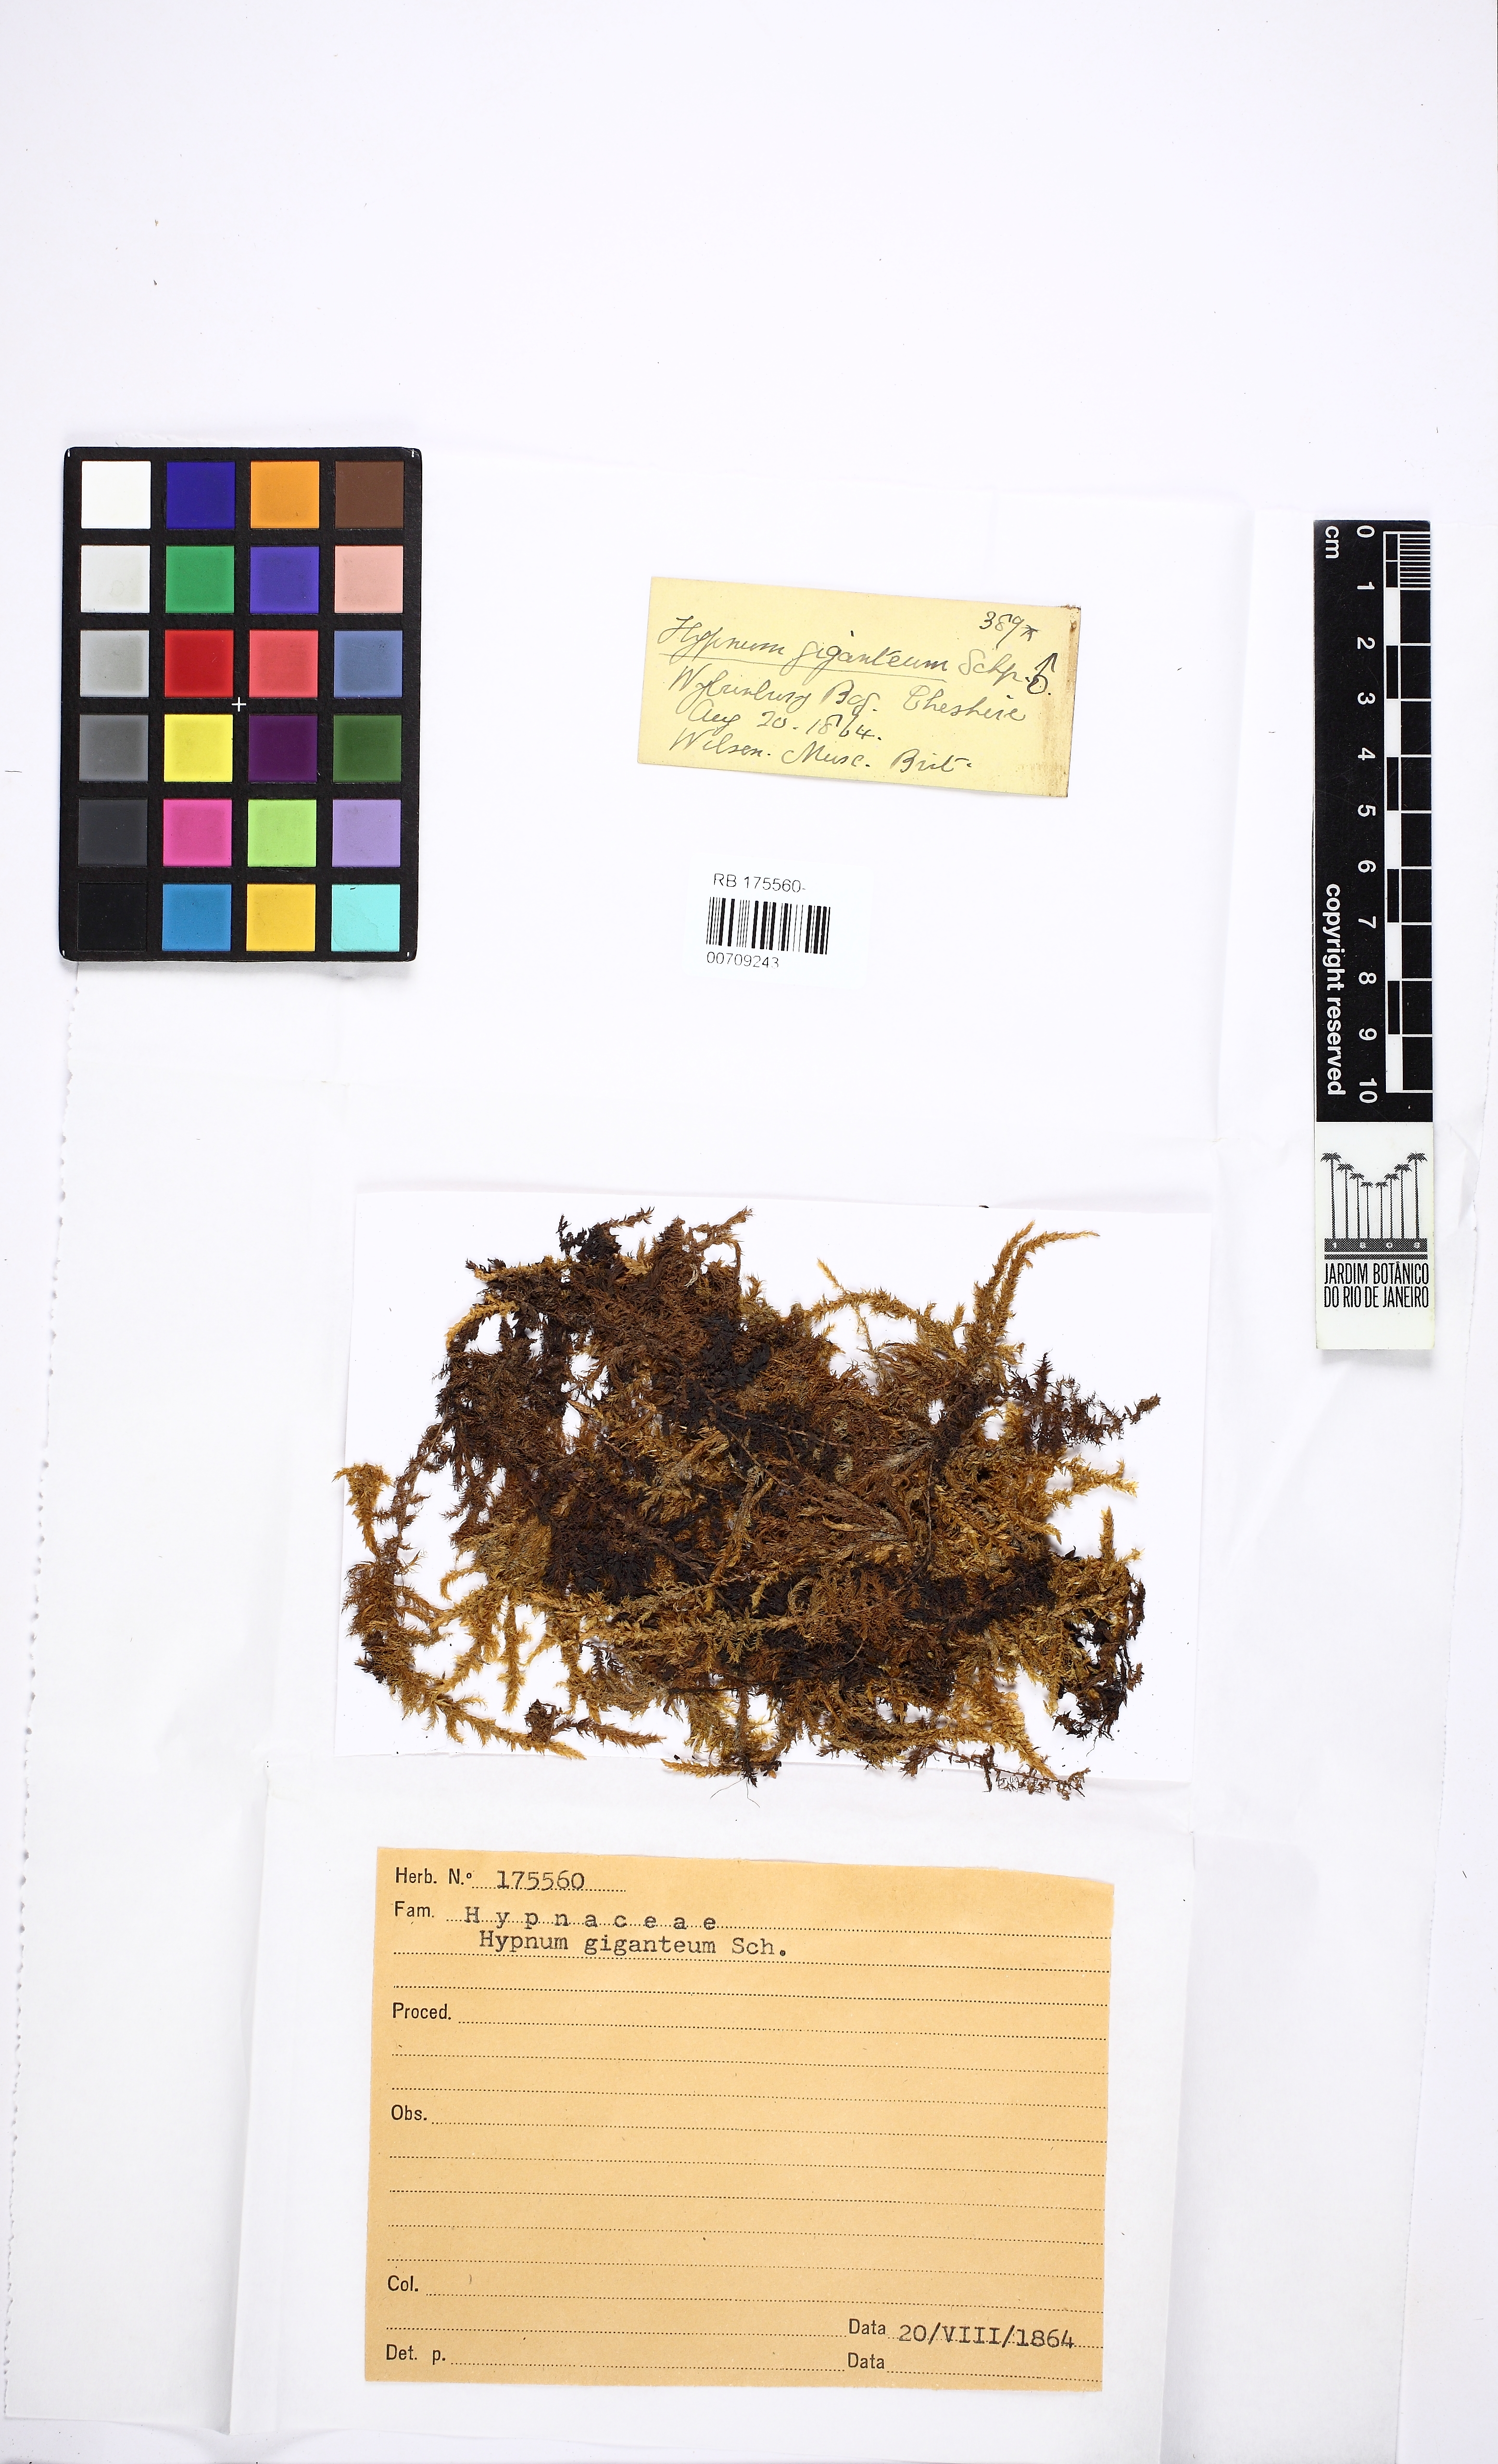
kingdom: Plantae
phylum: Bryophyta
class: Bryopsida
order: Hypnales
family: Calliergonaceae
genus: Calliergon
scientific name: Calliergon giganteum
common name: Giant spear moss
